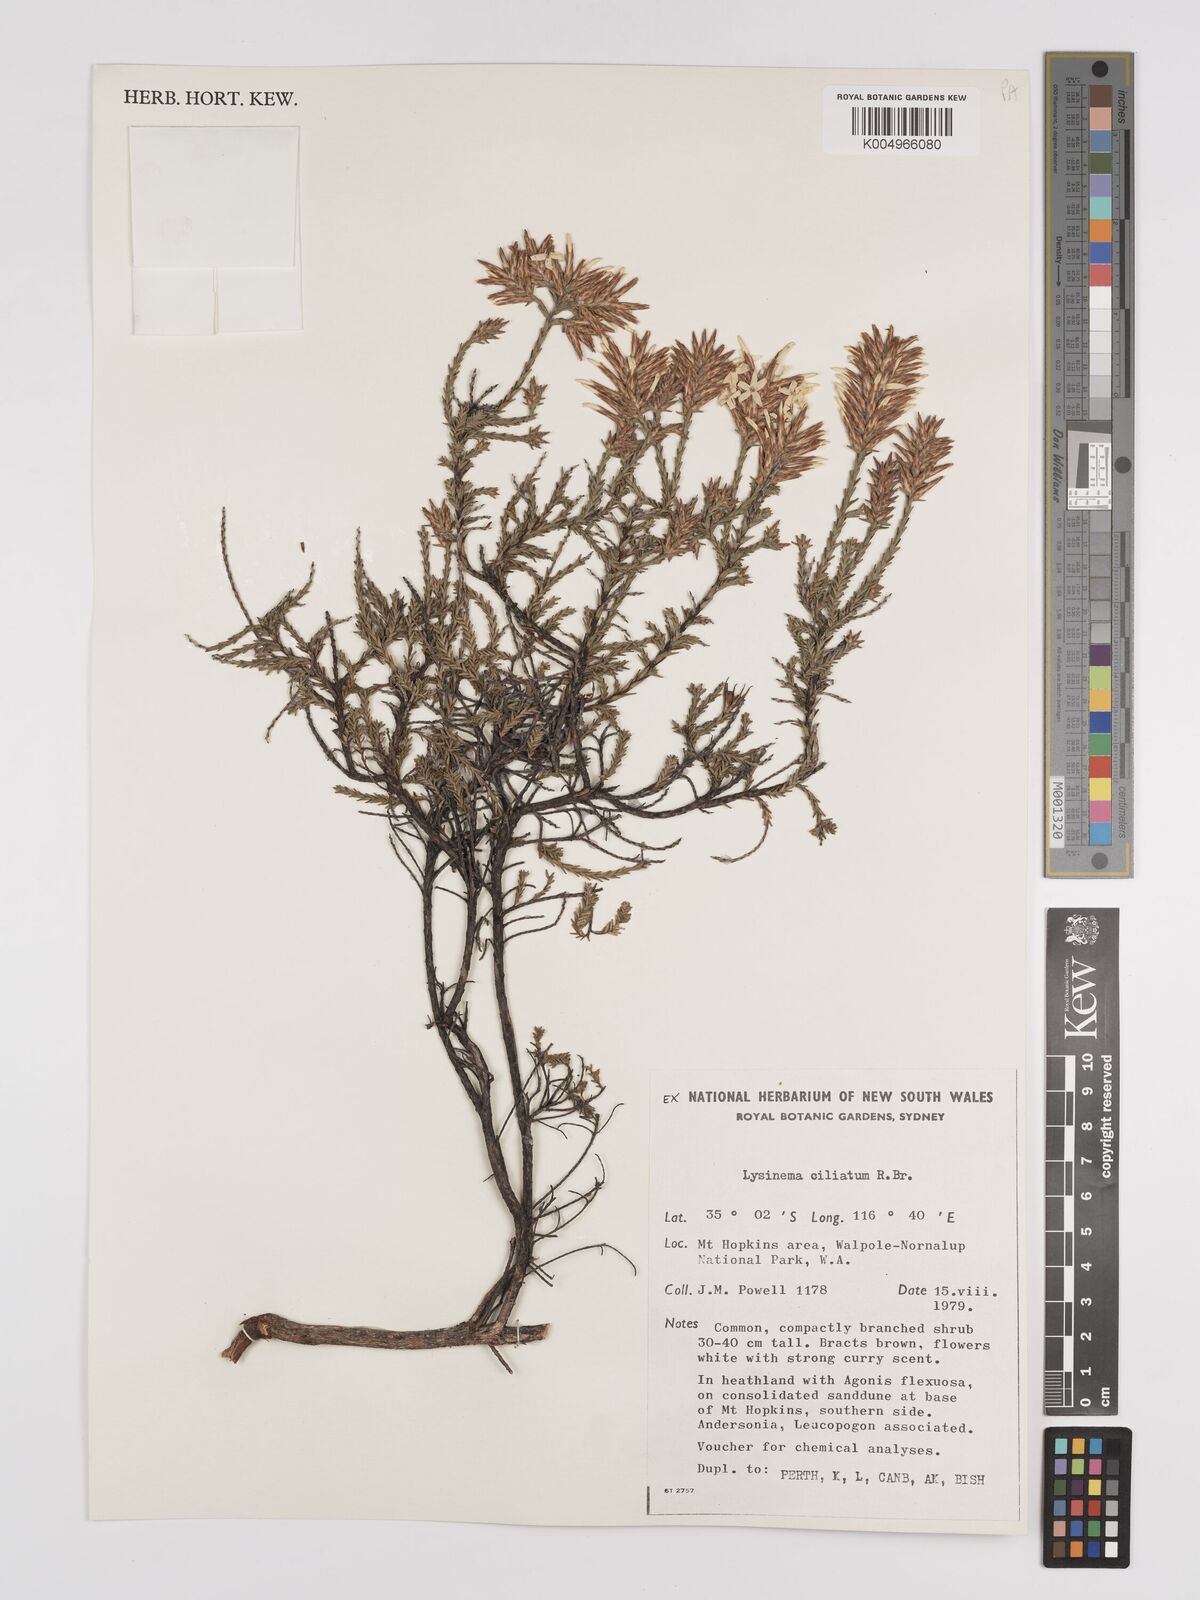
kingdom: Plantae
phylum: Tracheophyta
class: Magnoliopsida
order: Ericales
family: Ericaceae
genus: Lysinema
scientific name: Lysinema ciliatum
